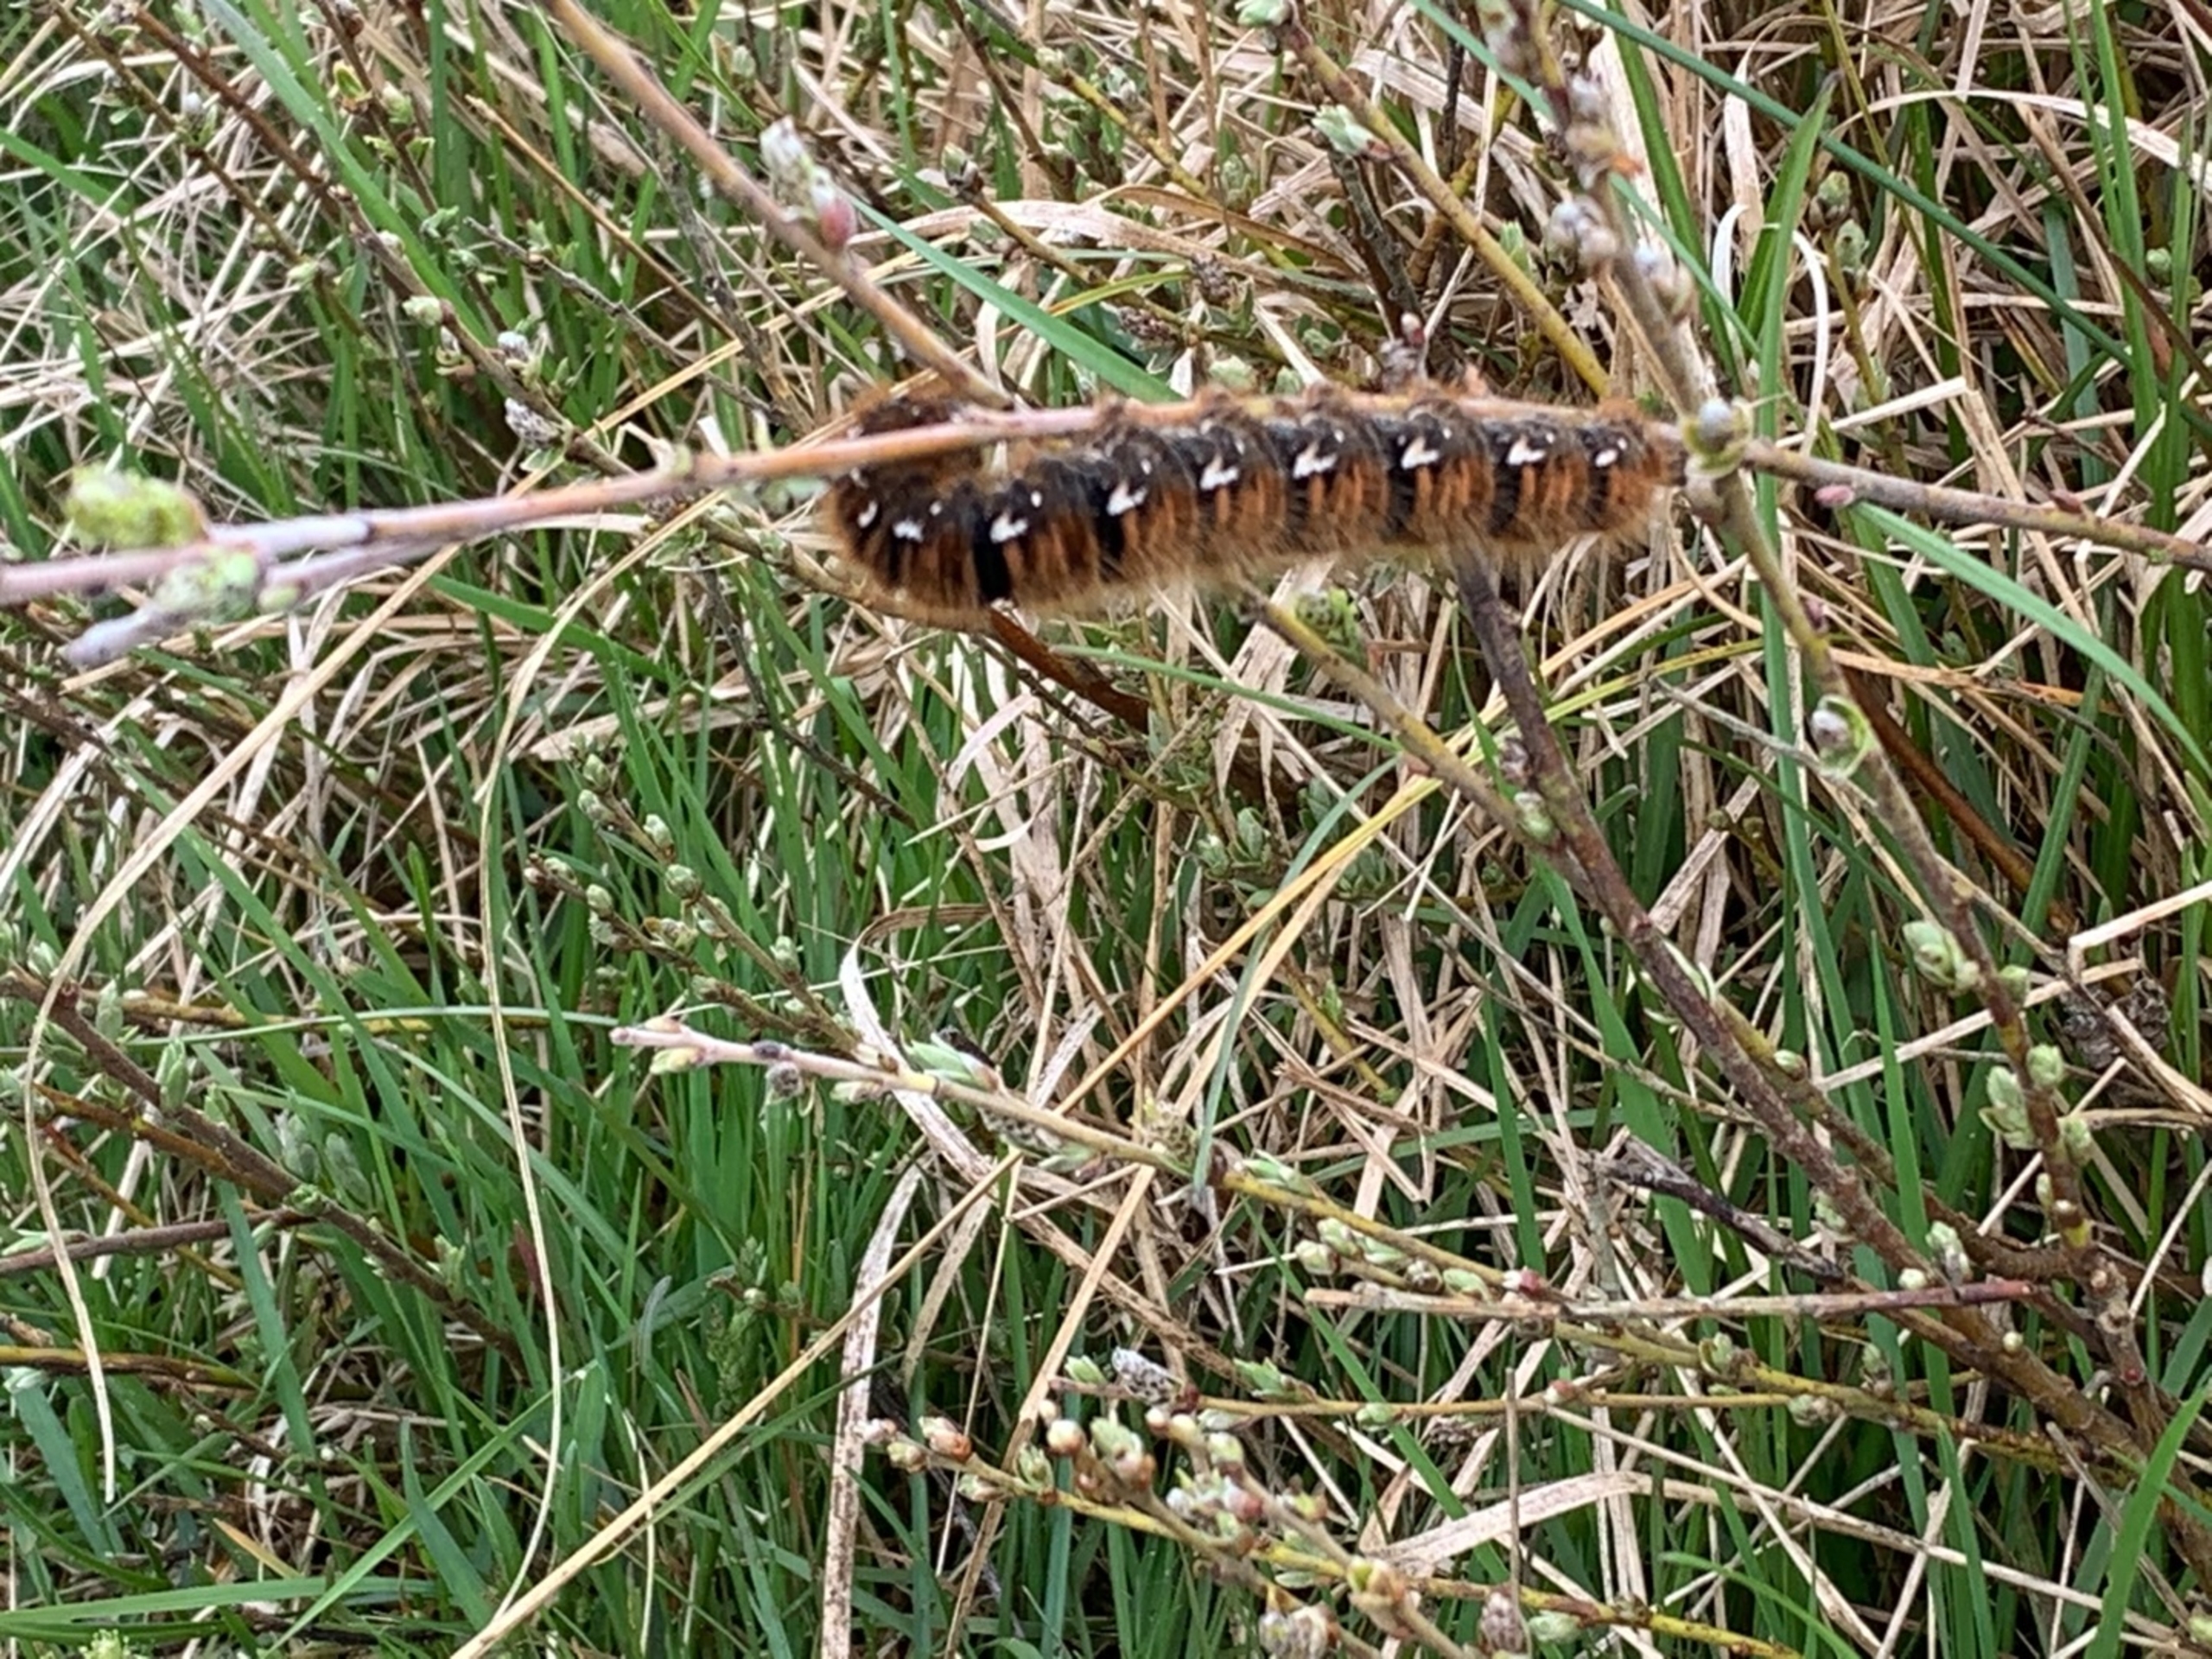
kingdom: Animalia
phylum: Arthropoda
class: Insecta
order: Lepidoptera
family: Lasiocampidae
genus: Lasiocampa
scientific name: Lasiocampa quercus
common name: Egespinder
